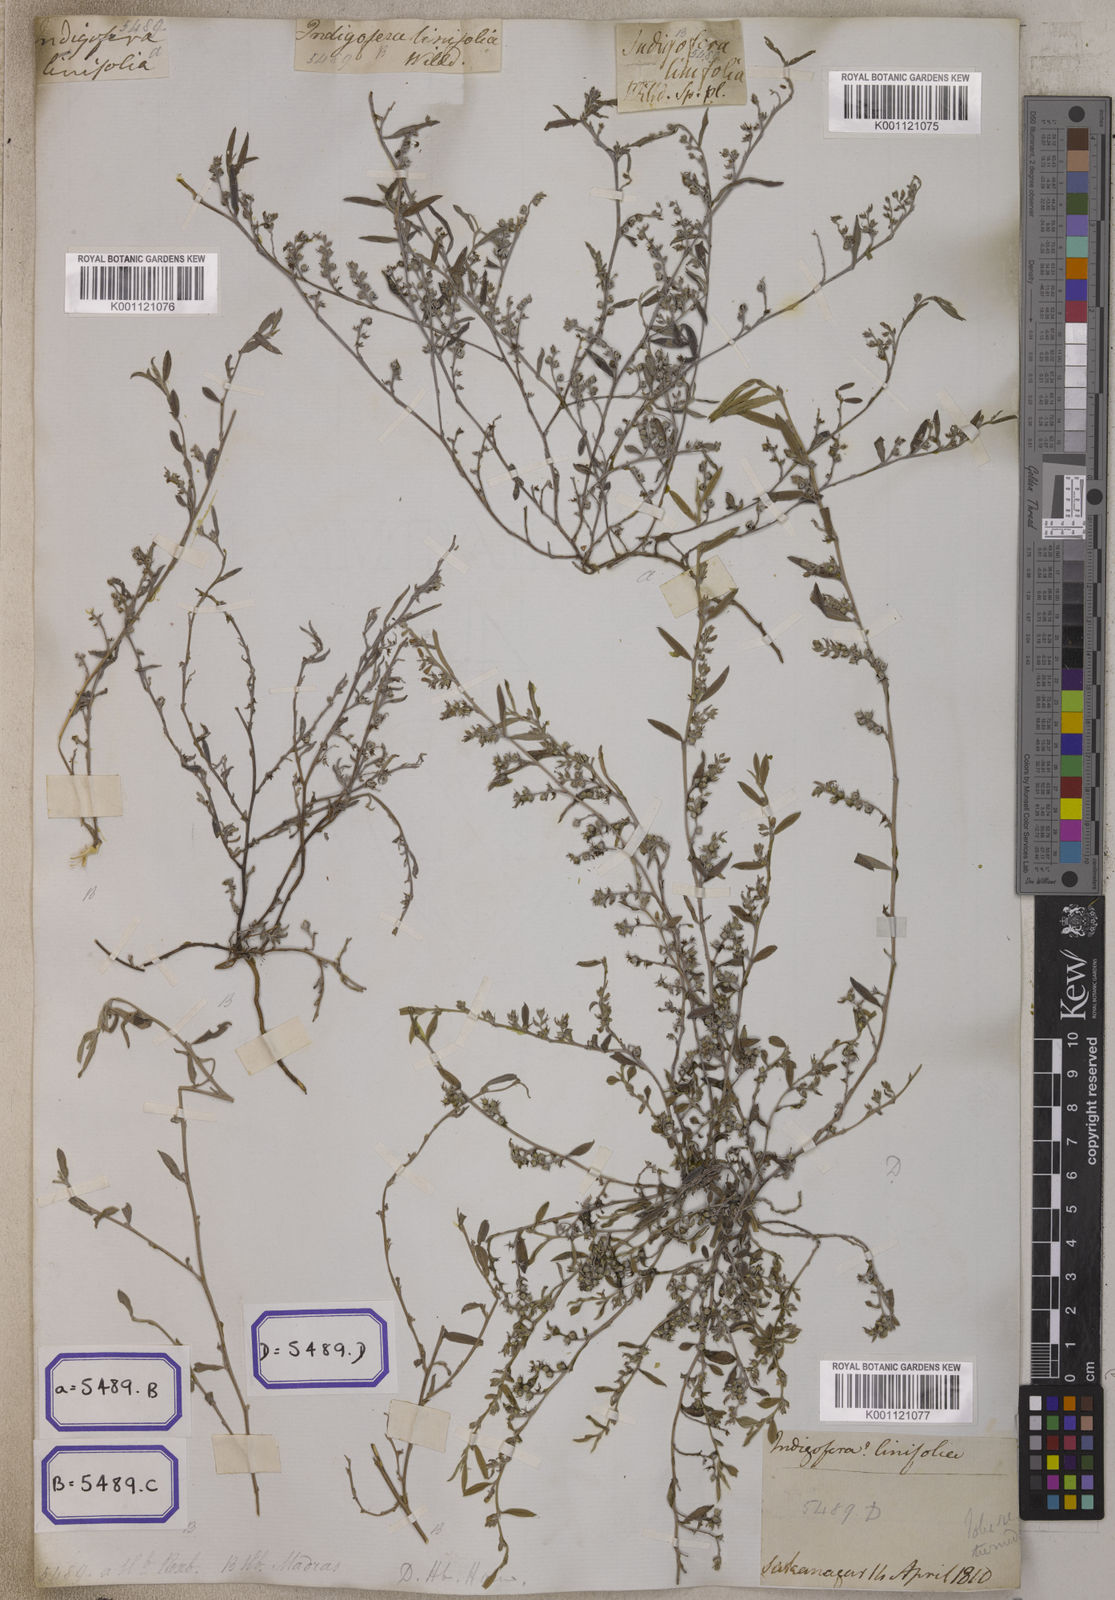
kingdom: Plantae
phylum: Tracheophyta
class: Magnoliopsida
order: Fabales
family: Fabaceae
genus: Indigofera
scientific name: Indigofera linifolia
